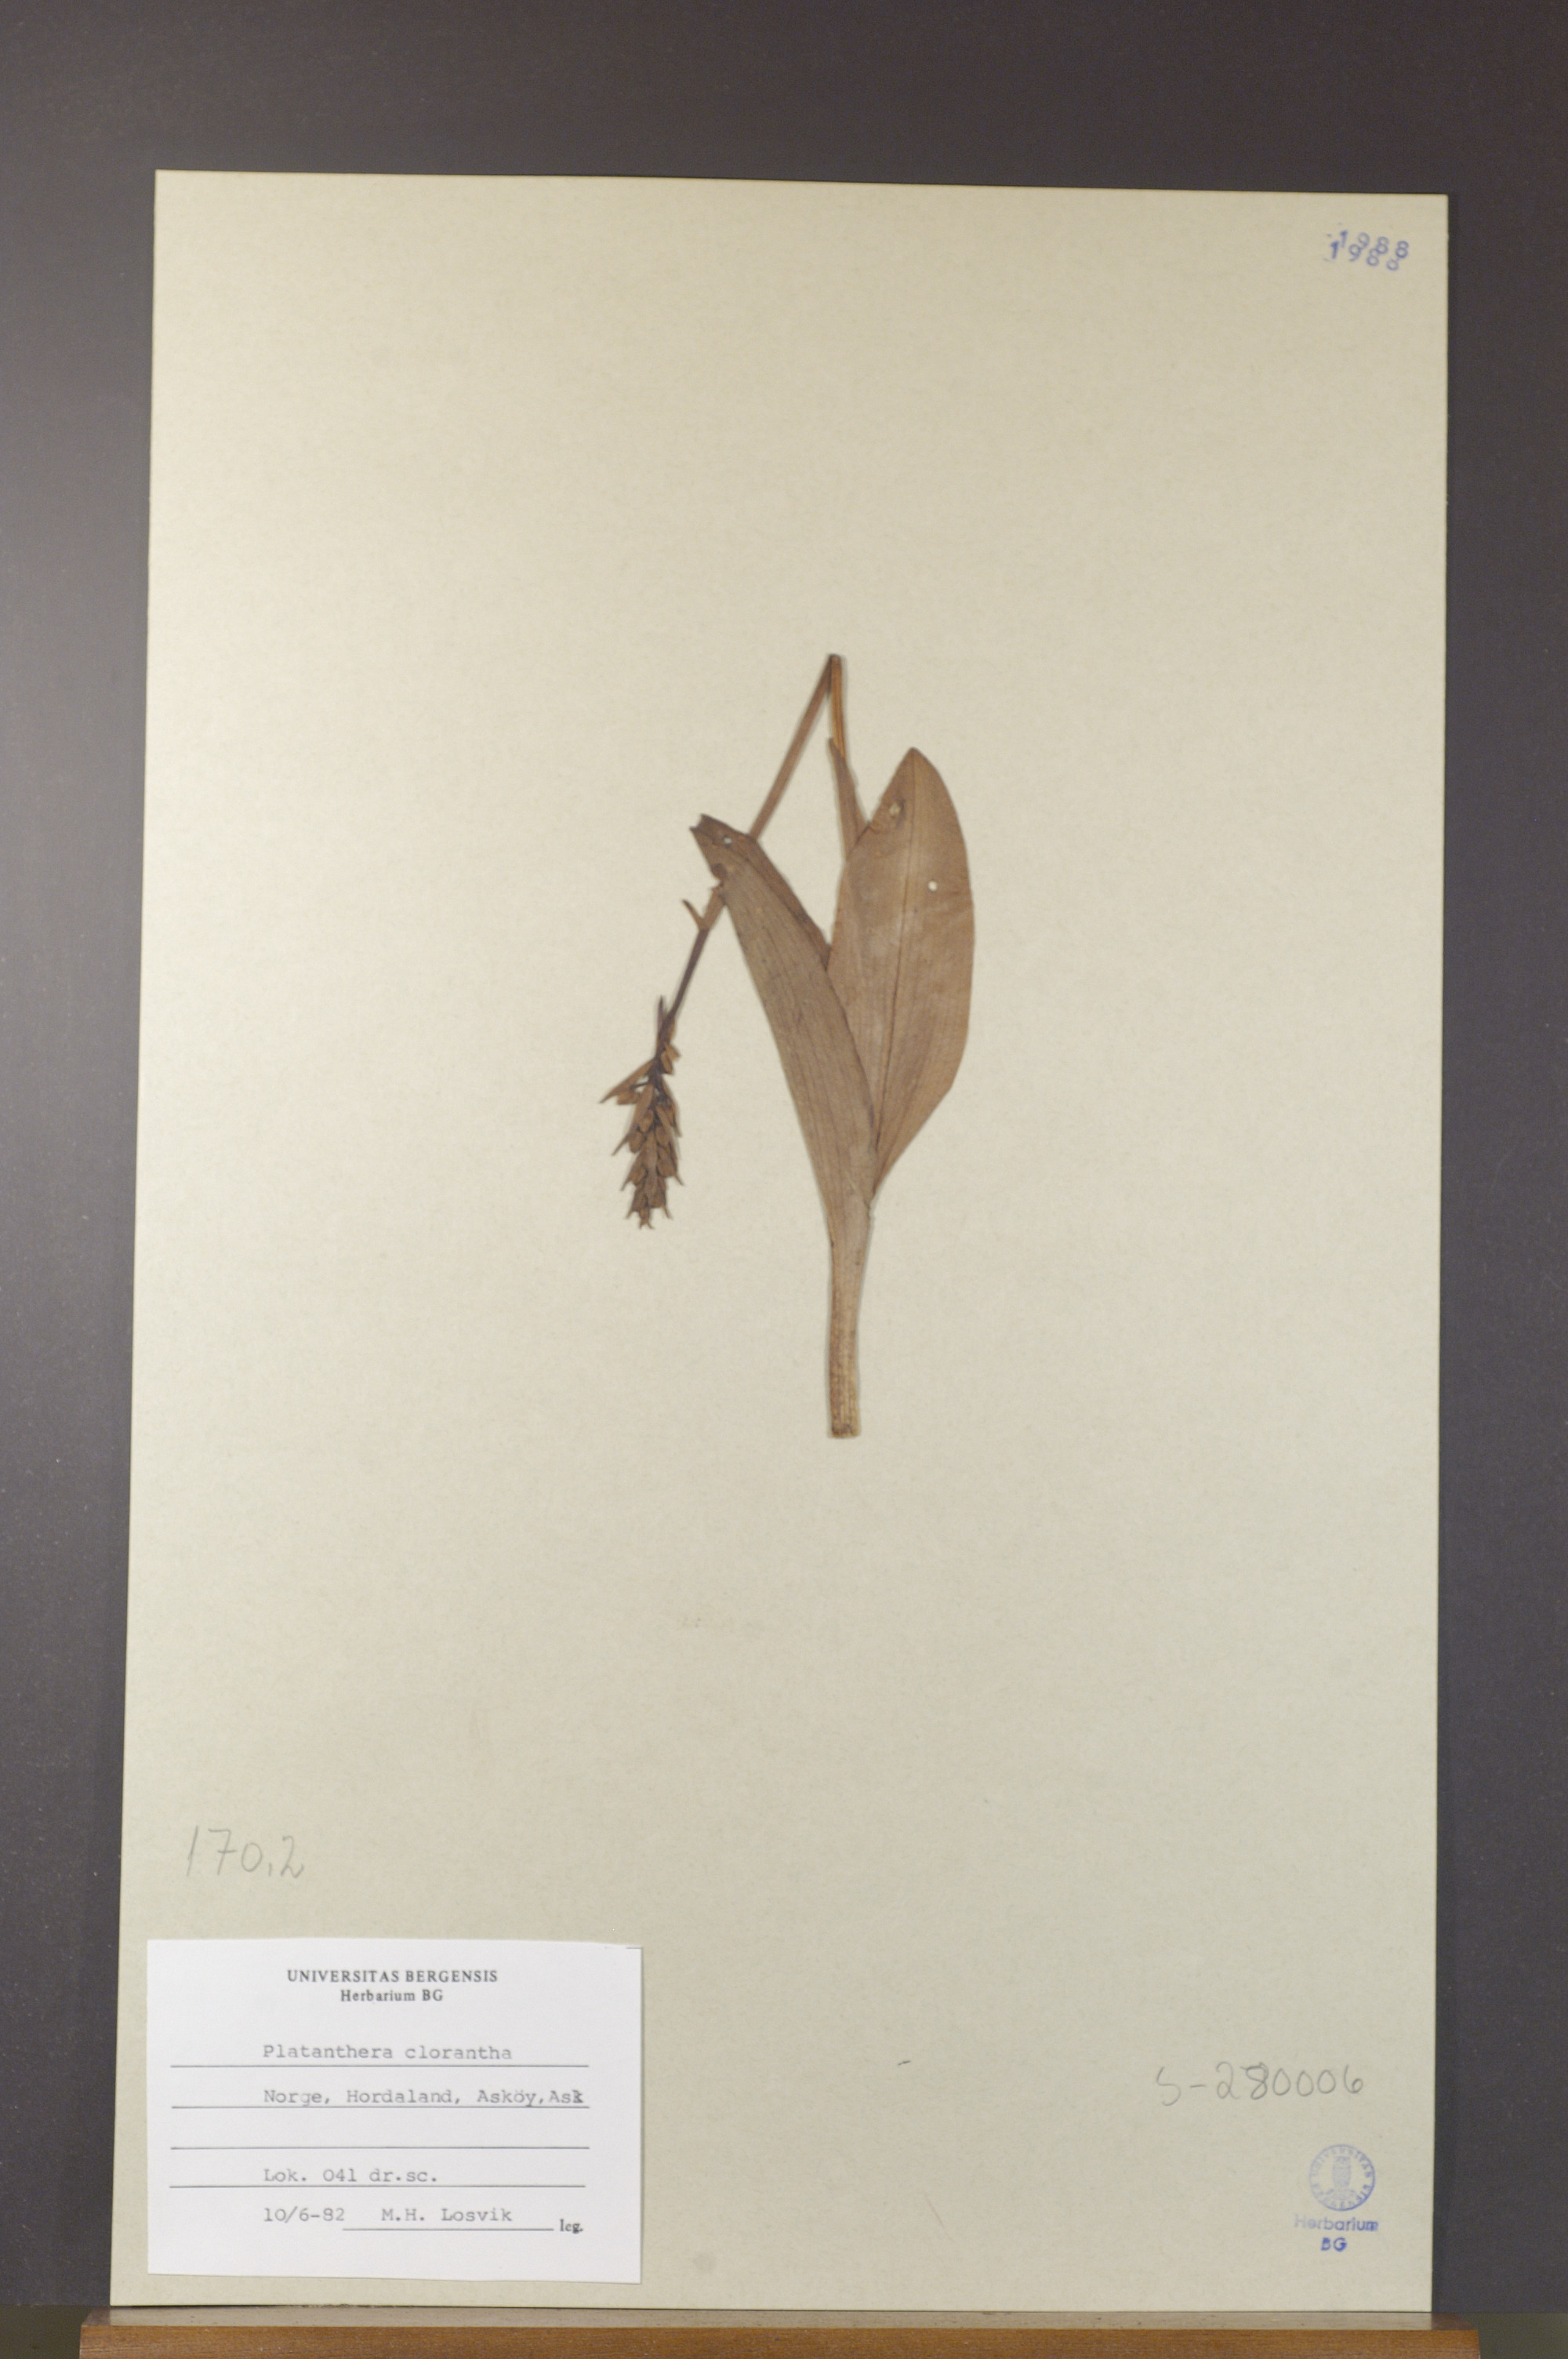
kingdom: Plantae
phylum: Tracheophyta
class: Liliopsida
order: Asparagales
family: Orchidaceae
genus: Platanthera
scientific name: Platanthera chlorantha
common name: Greater butterfly-orchid
